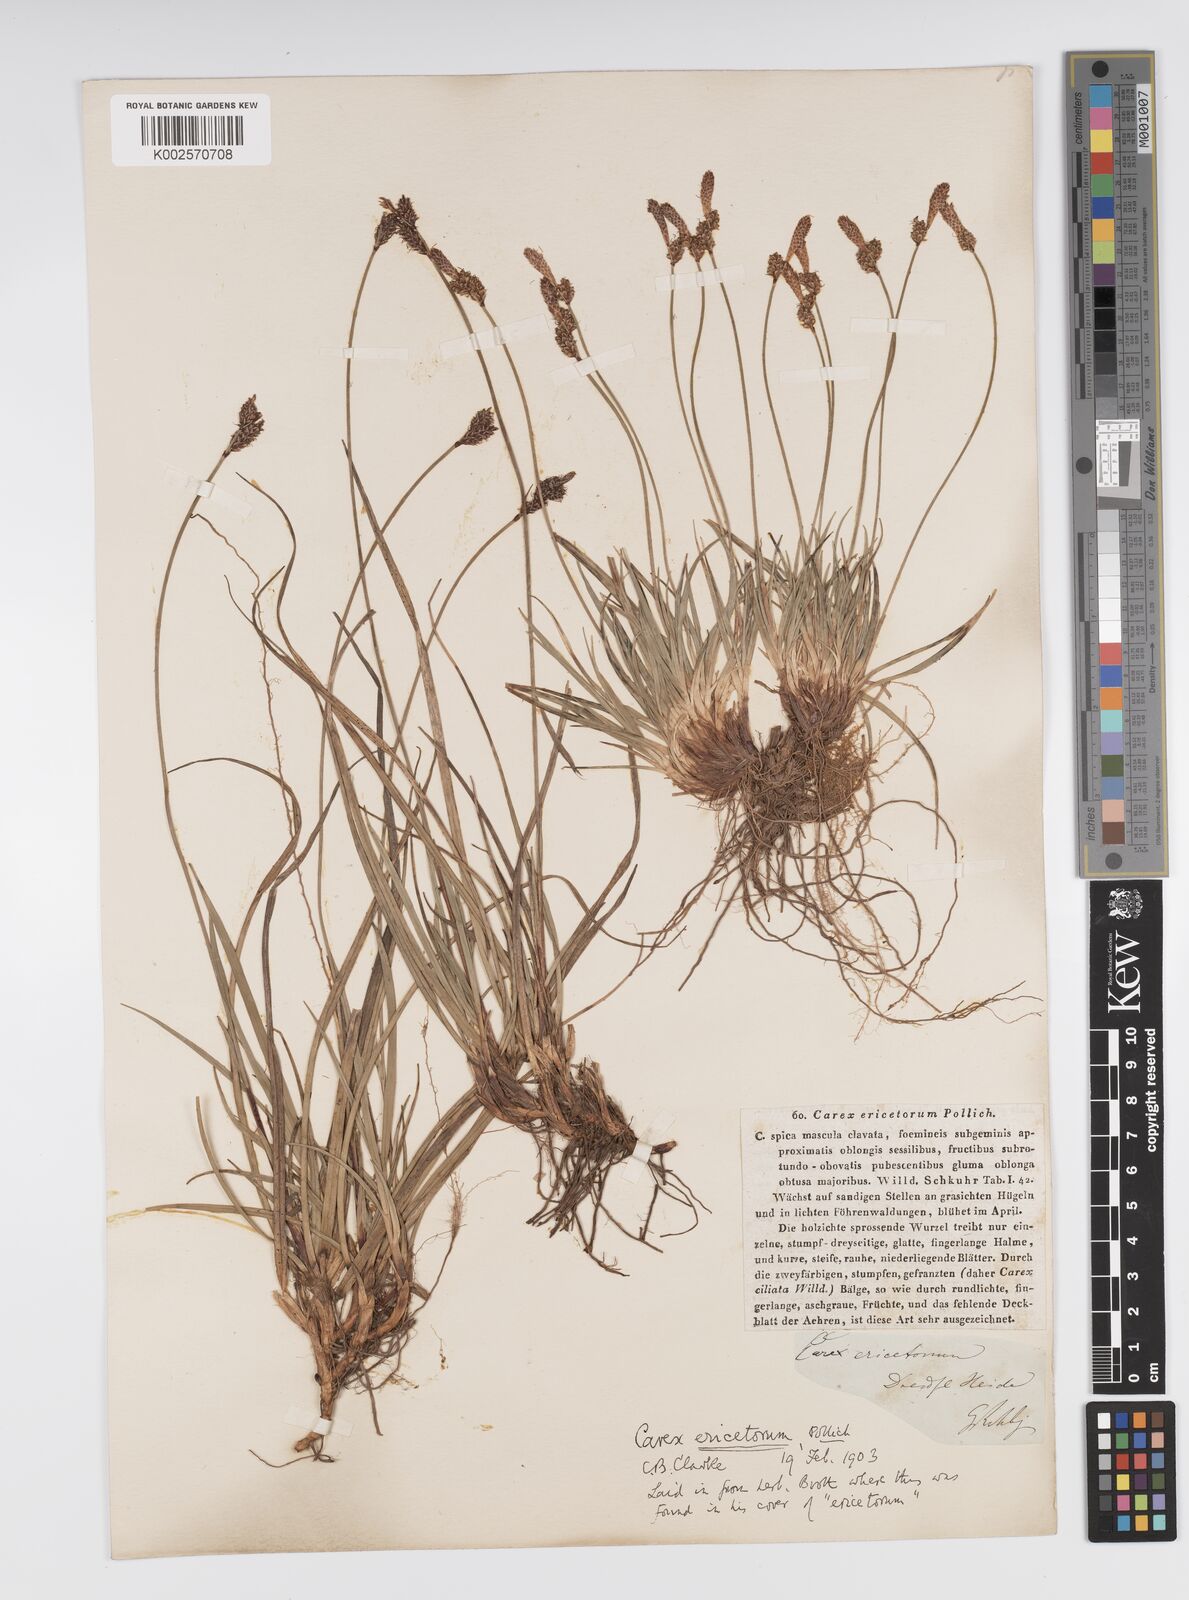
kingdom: Plantae
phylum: Tracheophyta
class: Liliopsida
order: Poales
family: Cyperaceae
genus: Carex
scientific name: Carex ericetorum
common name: Rare spring-sedge
